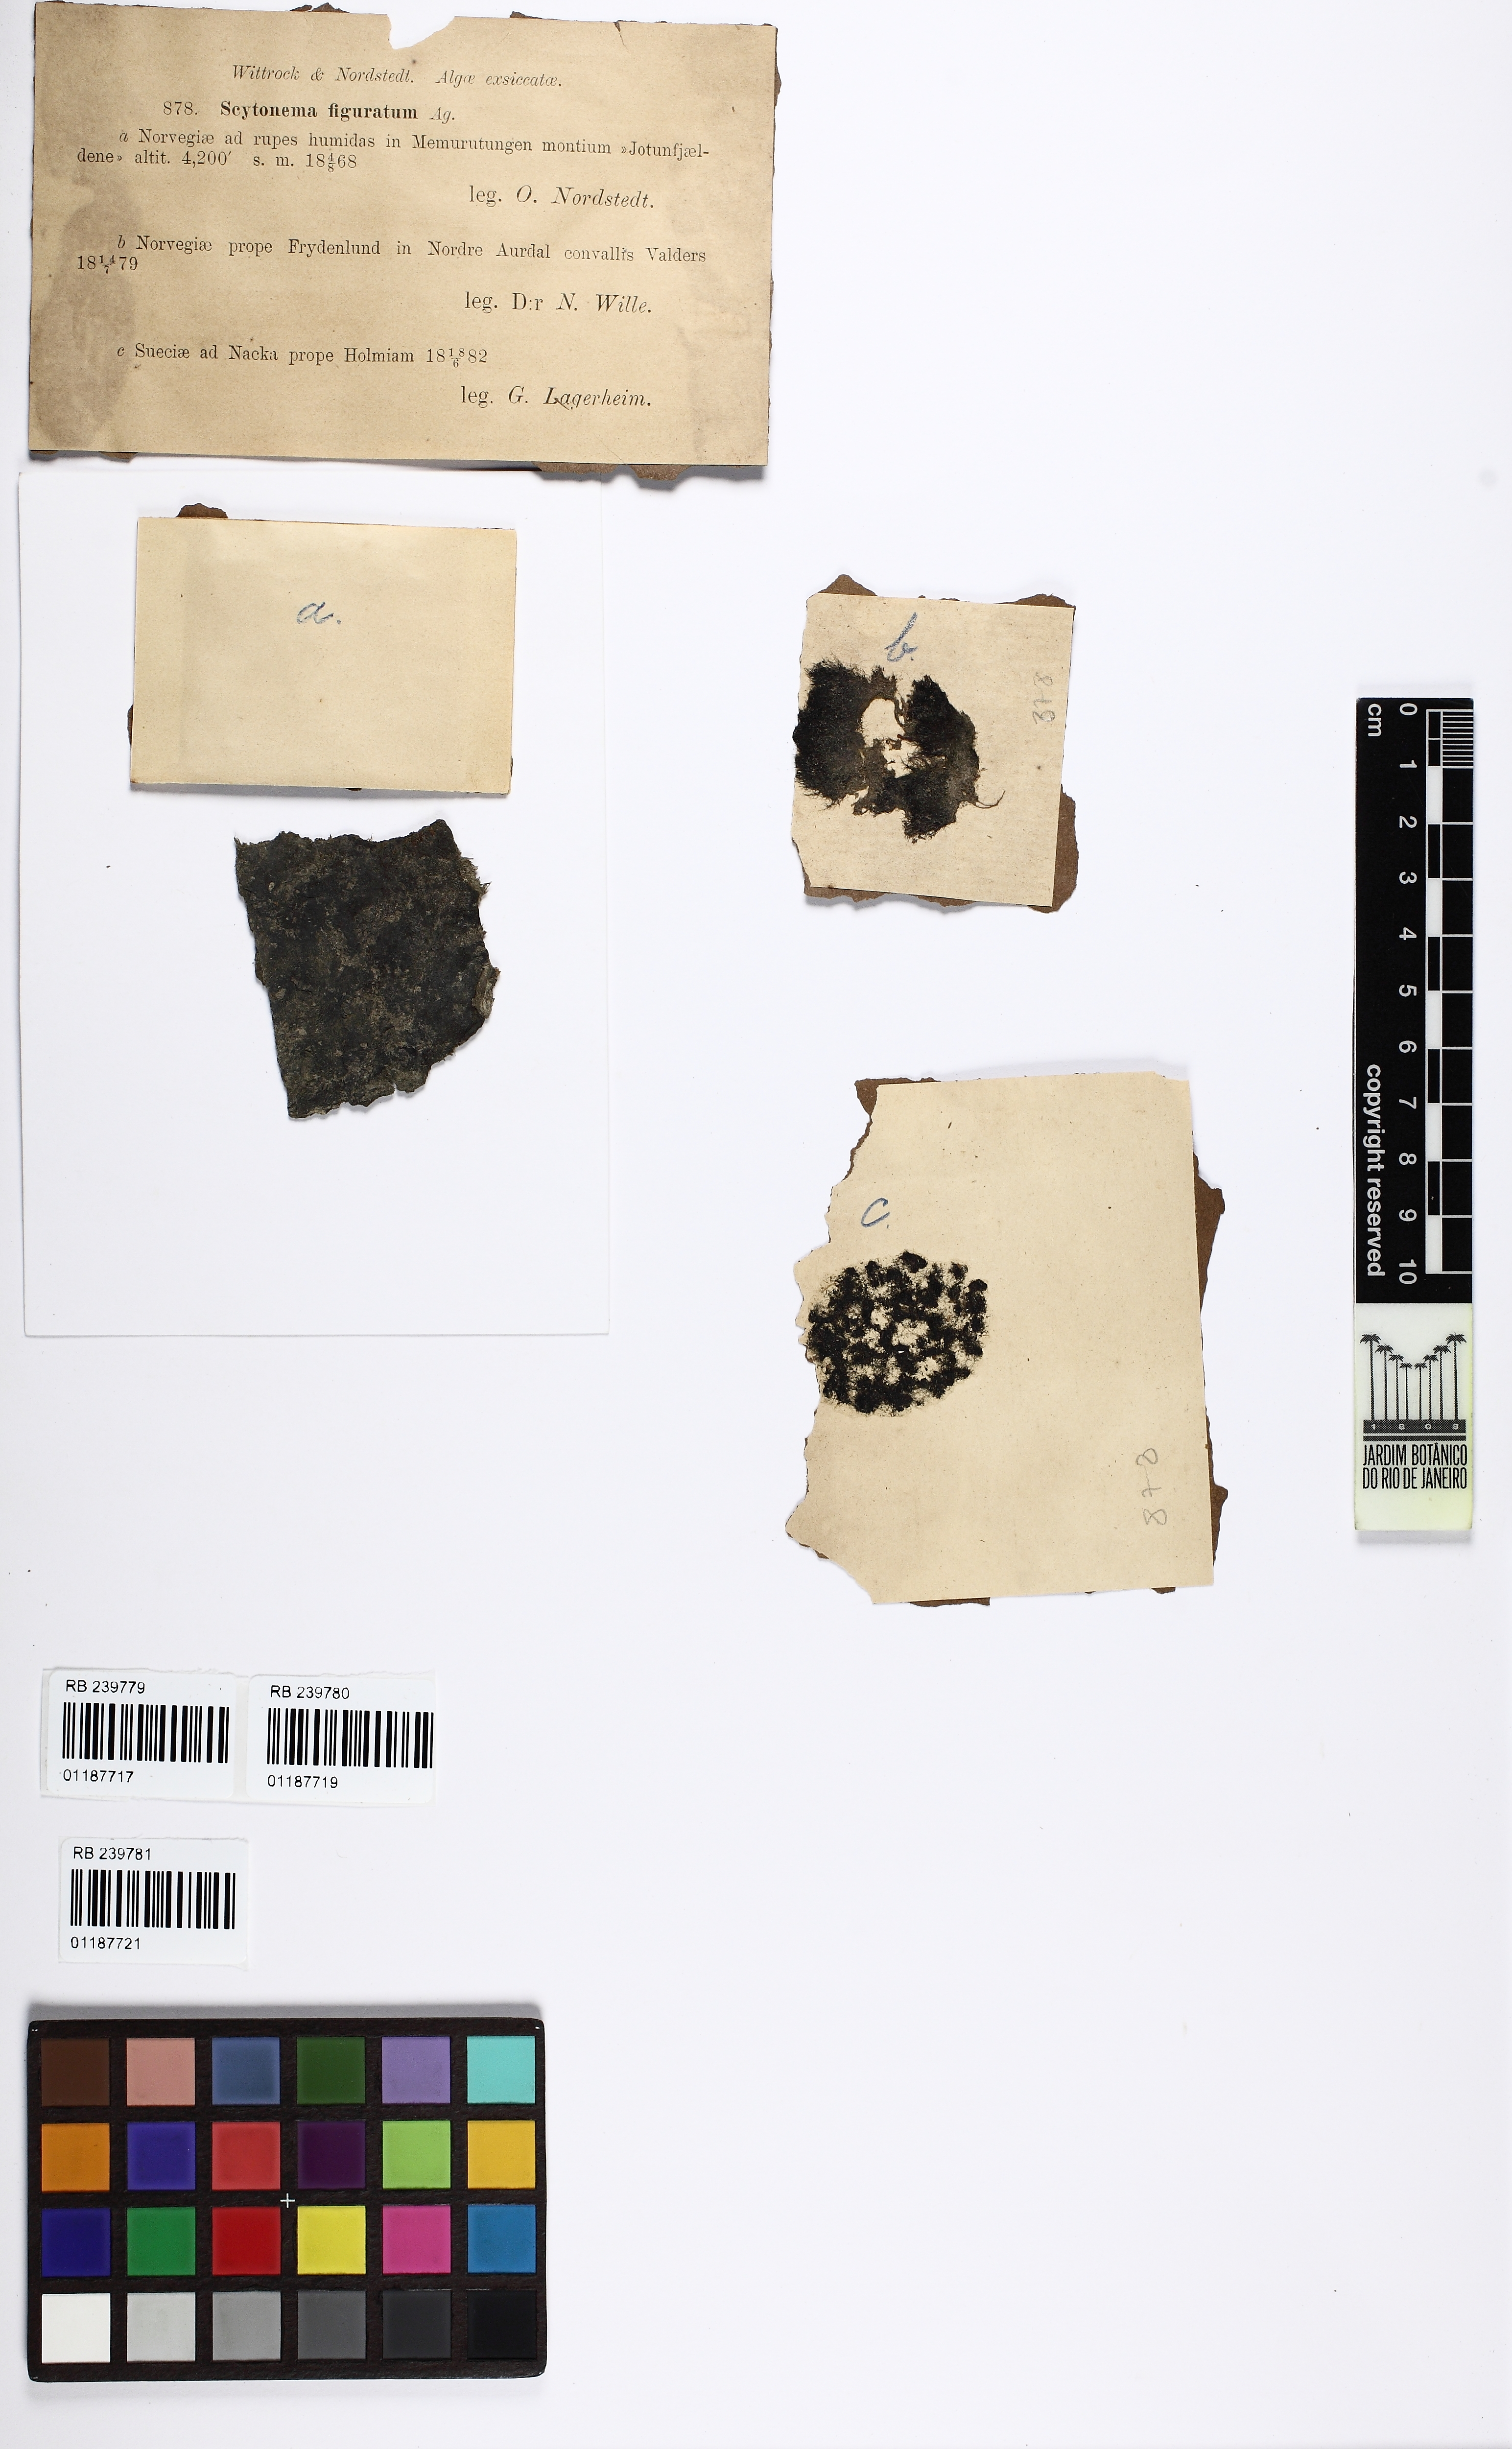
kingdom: Bacteria
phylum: Cyanobacteria
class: Cyanobacteriia
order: Cyanobacteriales
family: Scytonemataceae
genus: Scytonema
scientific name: Scytonema mirabile
